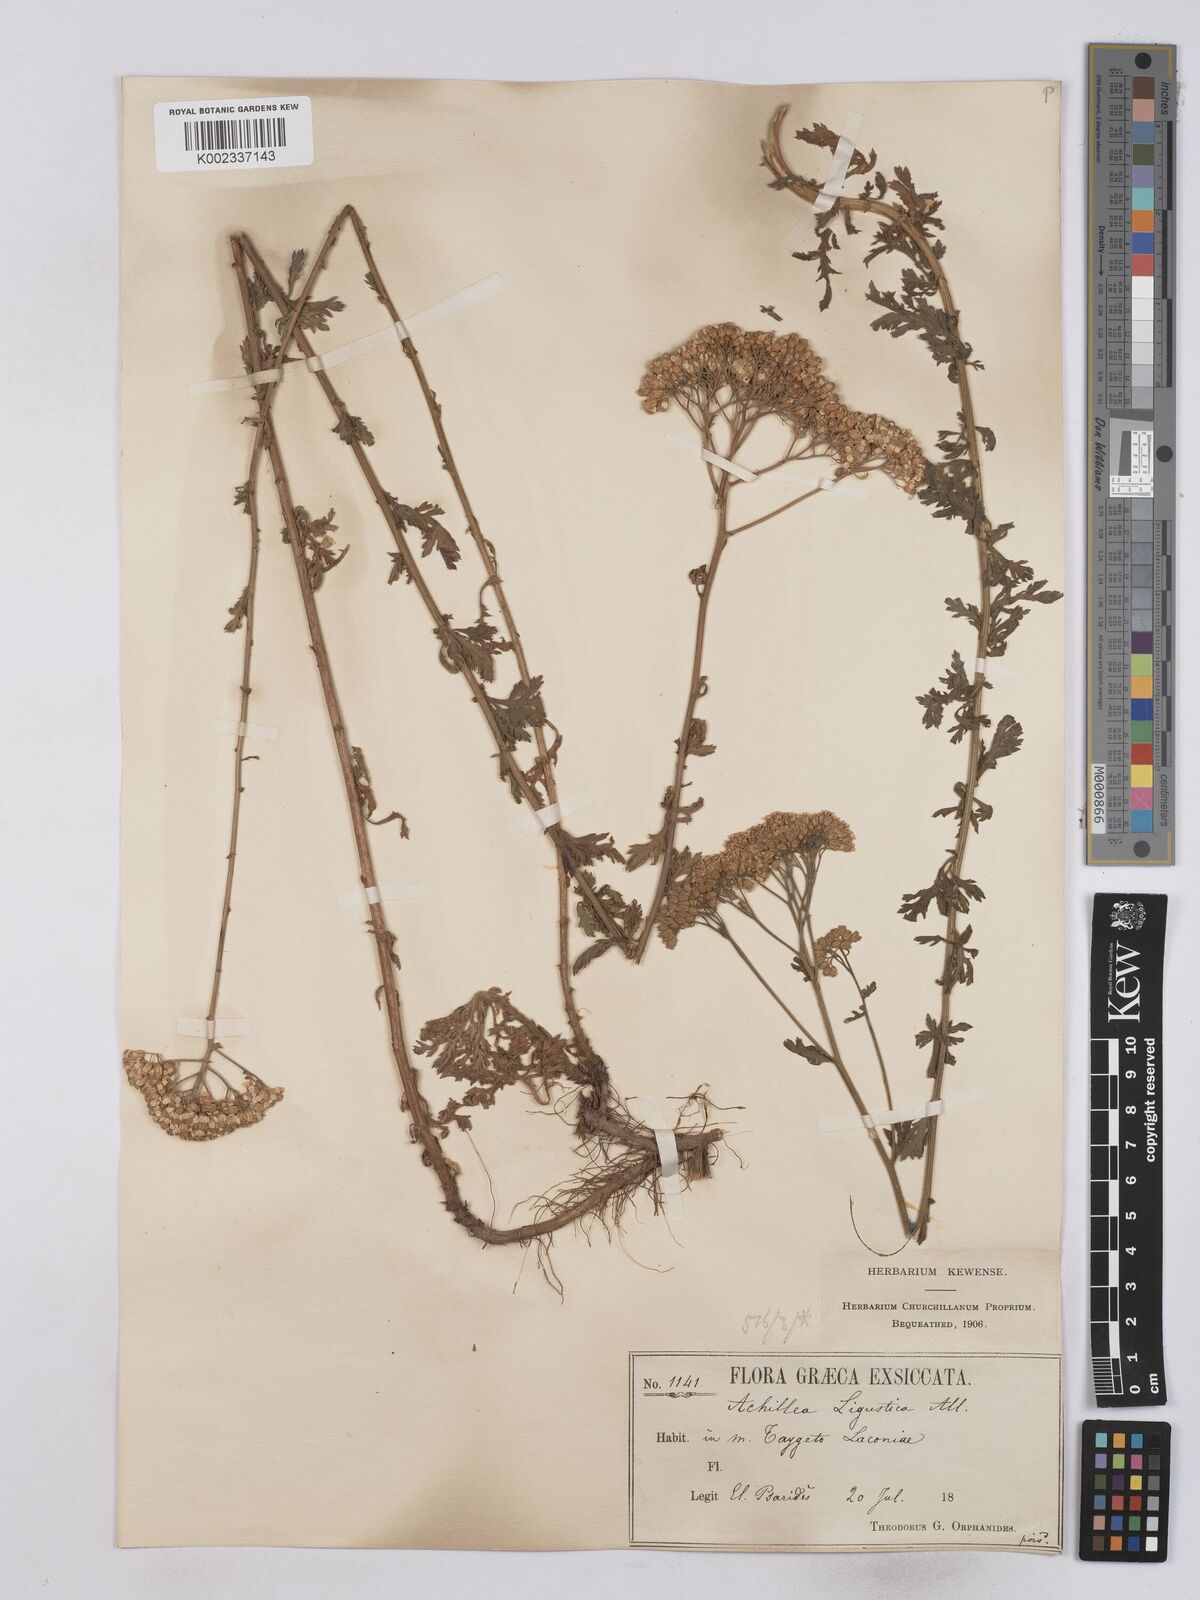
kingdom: Plantae
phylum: Tracheophyta
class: Magnoliopsida
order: Asterales
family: Asteraceae
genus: Achillea
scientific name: Achillea ligustica
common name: Southern yarrow
